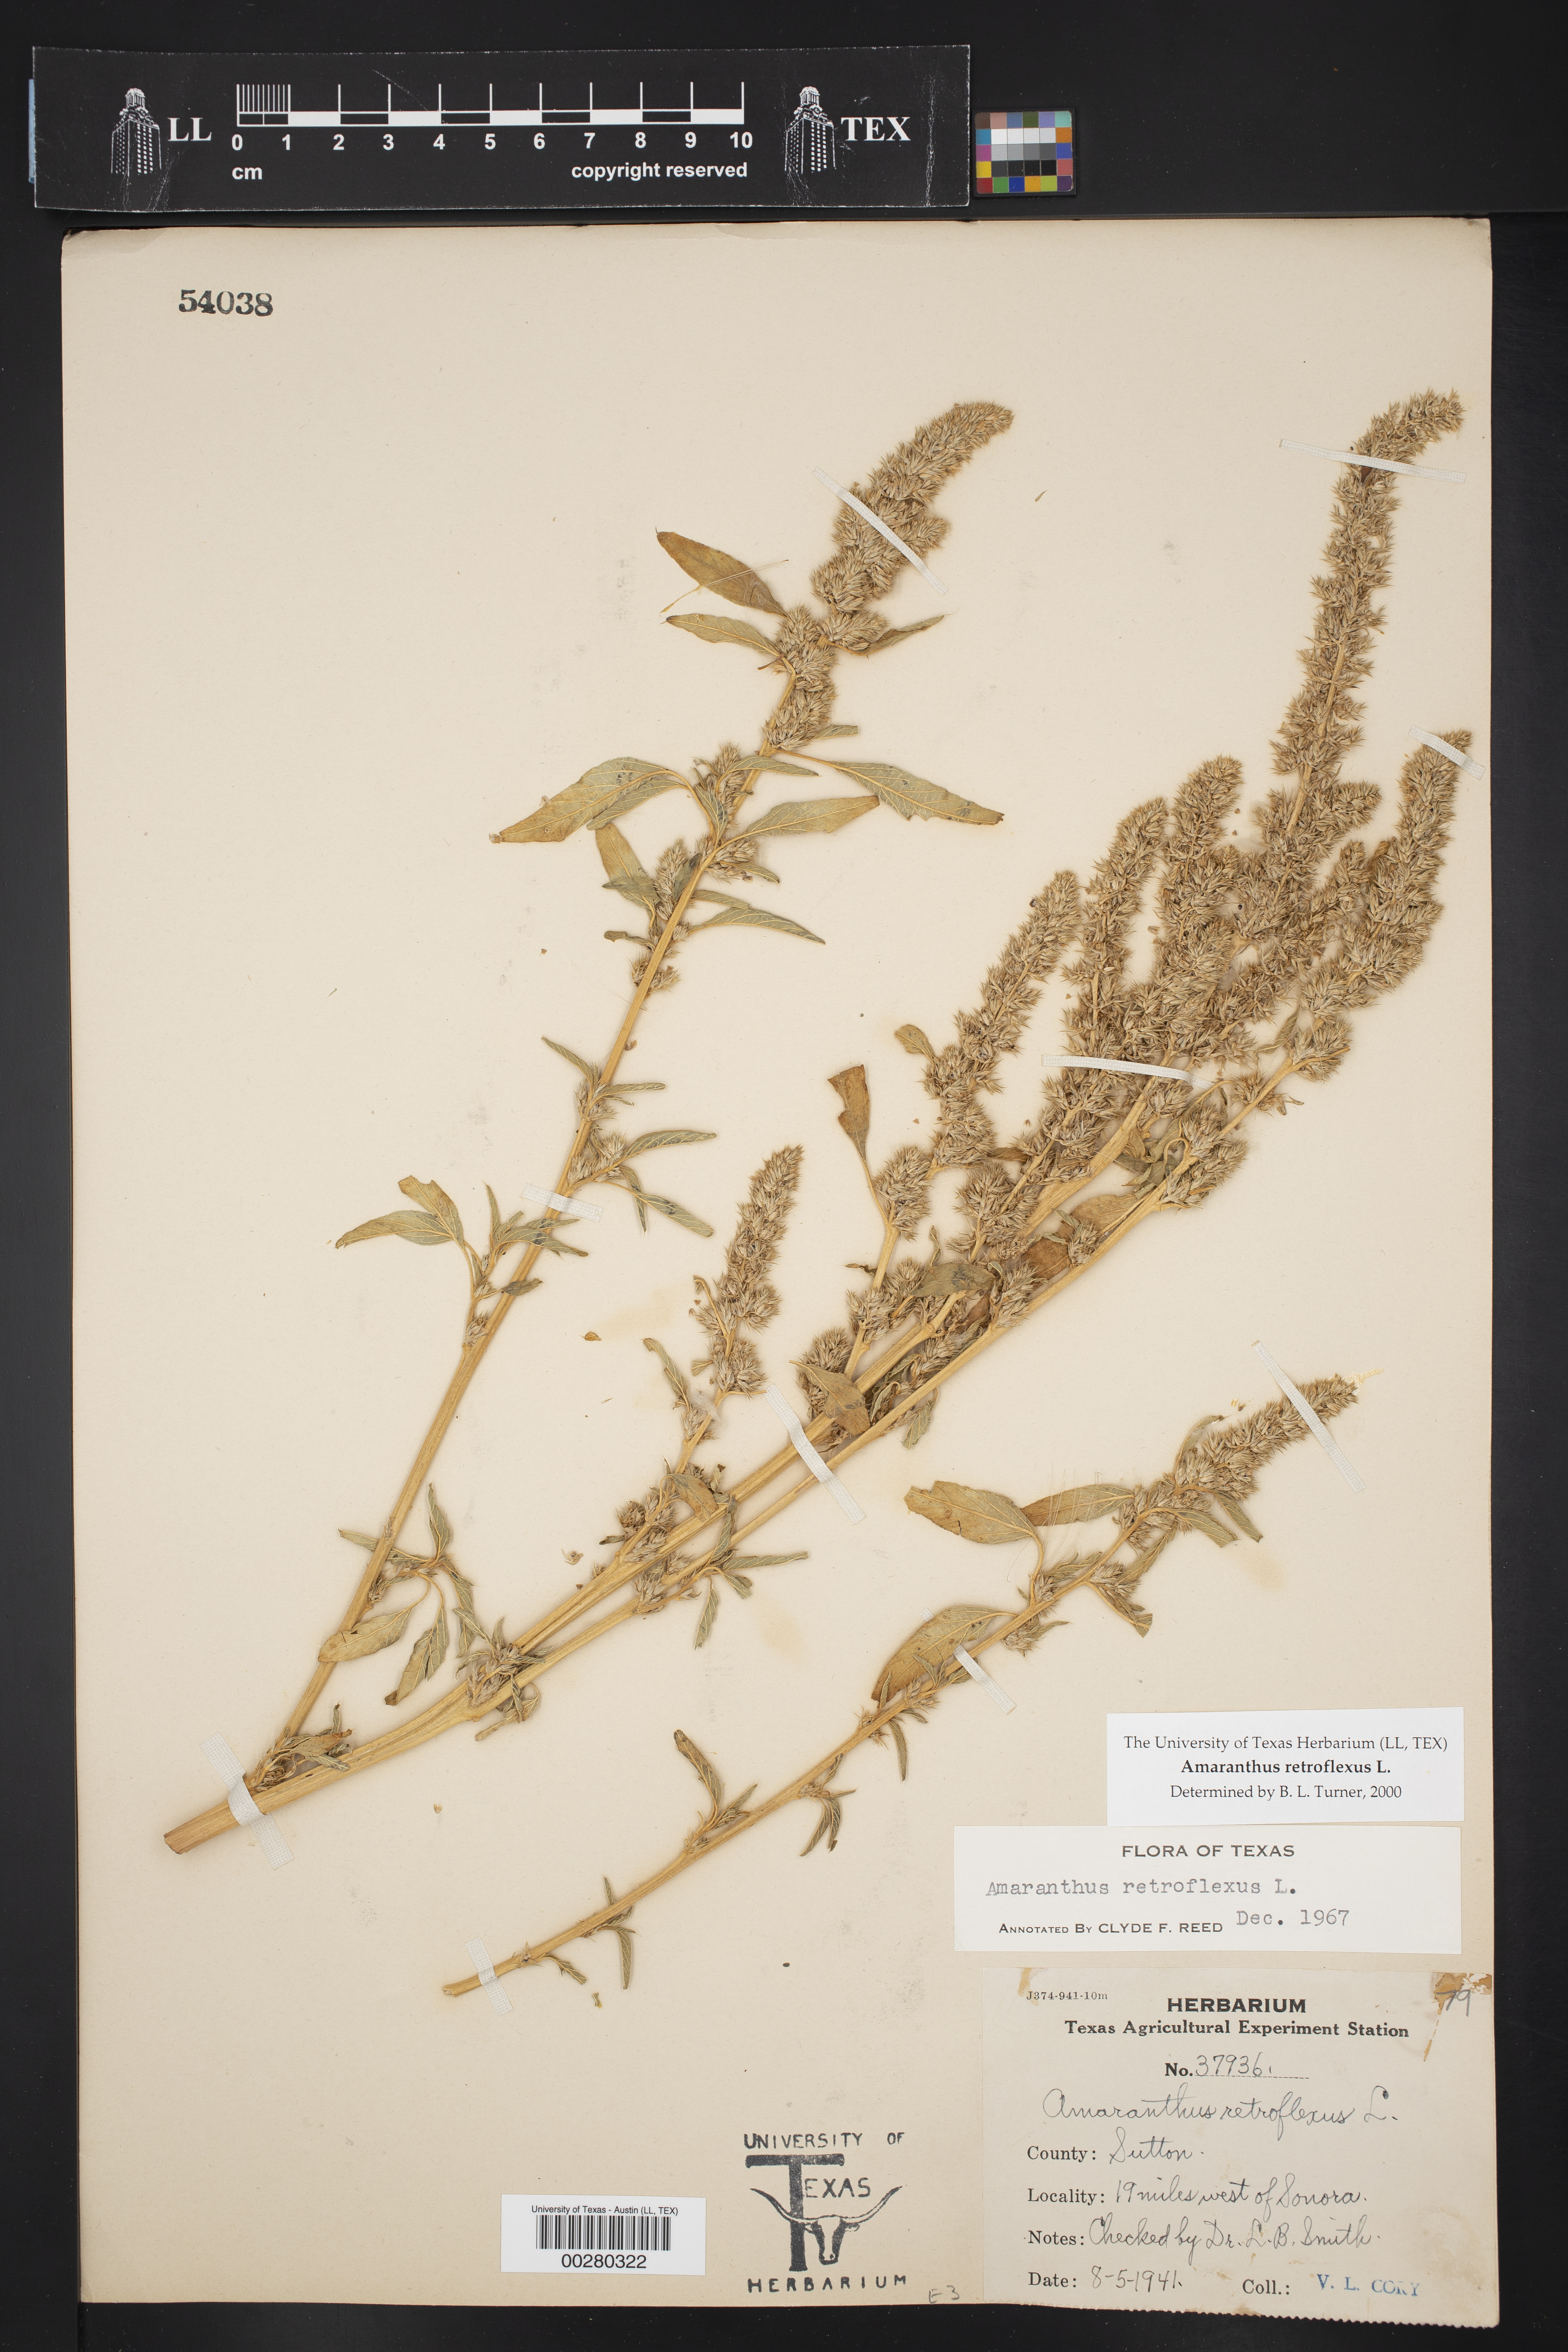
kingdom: Plantae
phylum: Tracheophyta
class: Magnoliopsida
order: Caryophyllales
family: Amaranthaceae
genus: Amaranthus
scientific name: Amaranthus retroflexus
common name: Redroot amaranth
